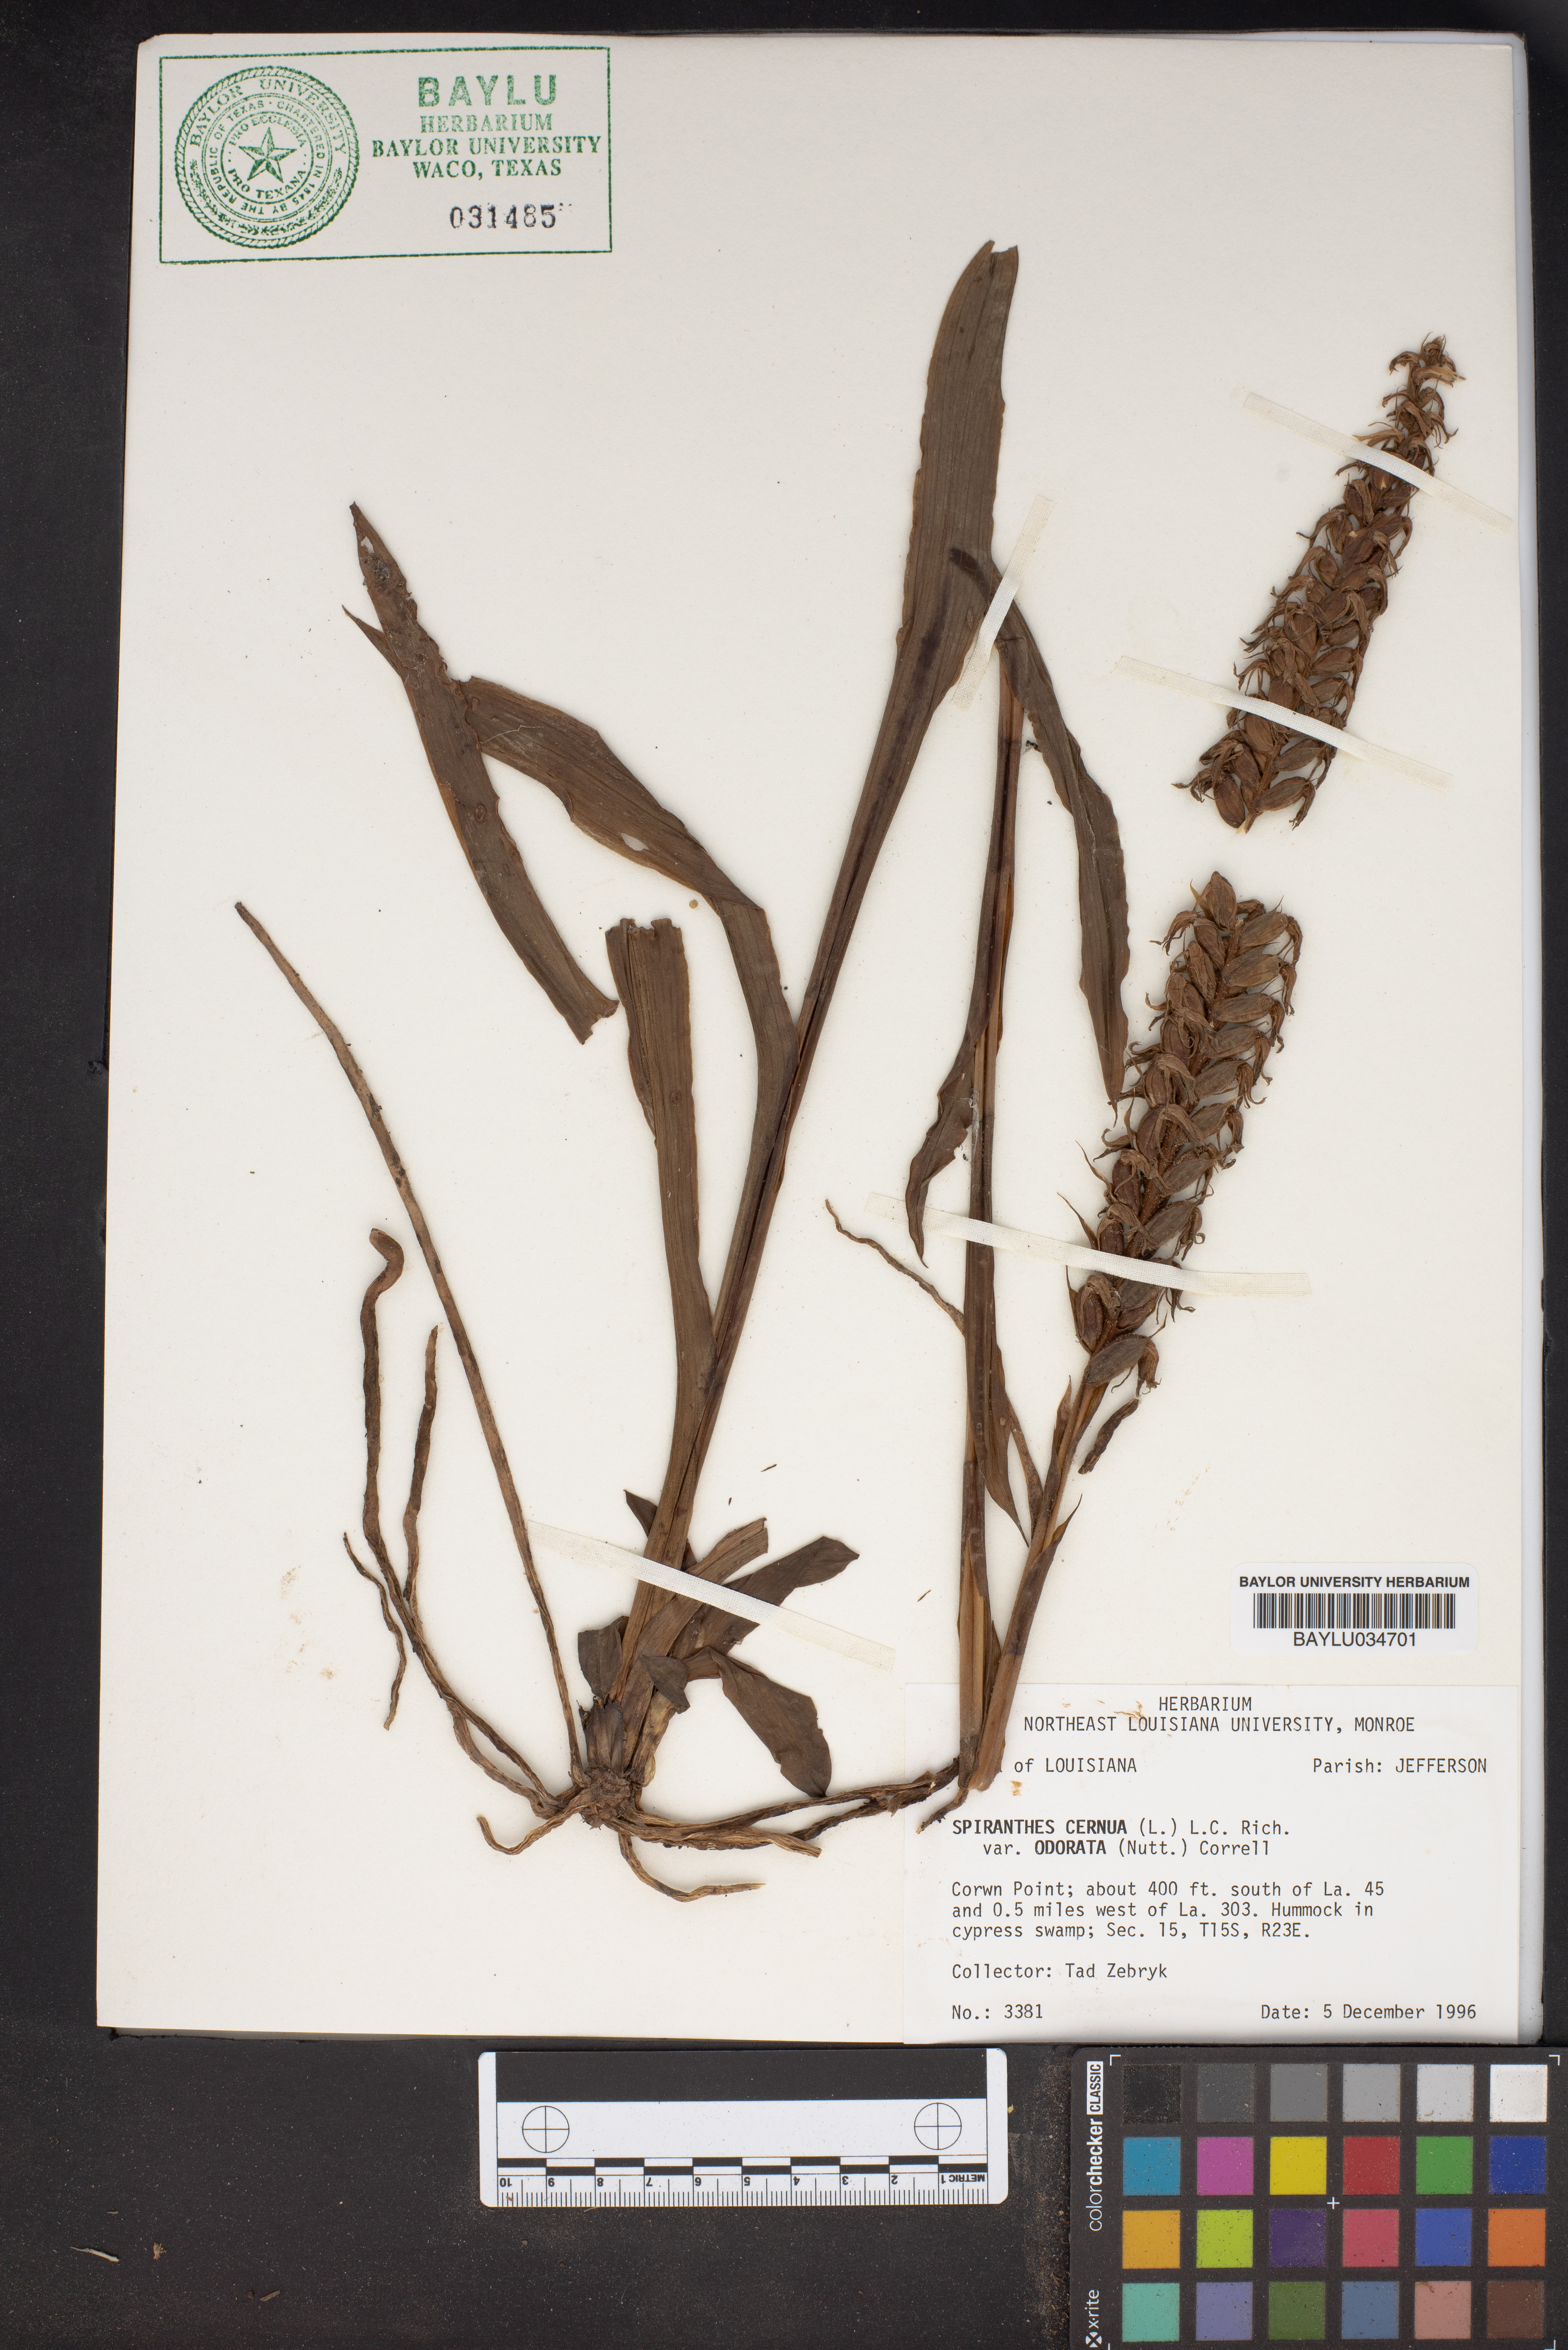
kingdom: Plantae
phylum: Tracheophyta
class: Liliopsida
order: Asparagales
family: Orchidaceae
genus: Spiranthes
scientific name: Spiranthes odorata
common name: Marsh ladies'-tresses
